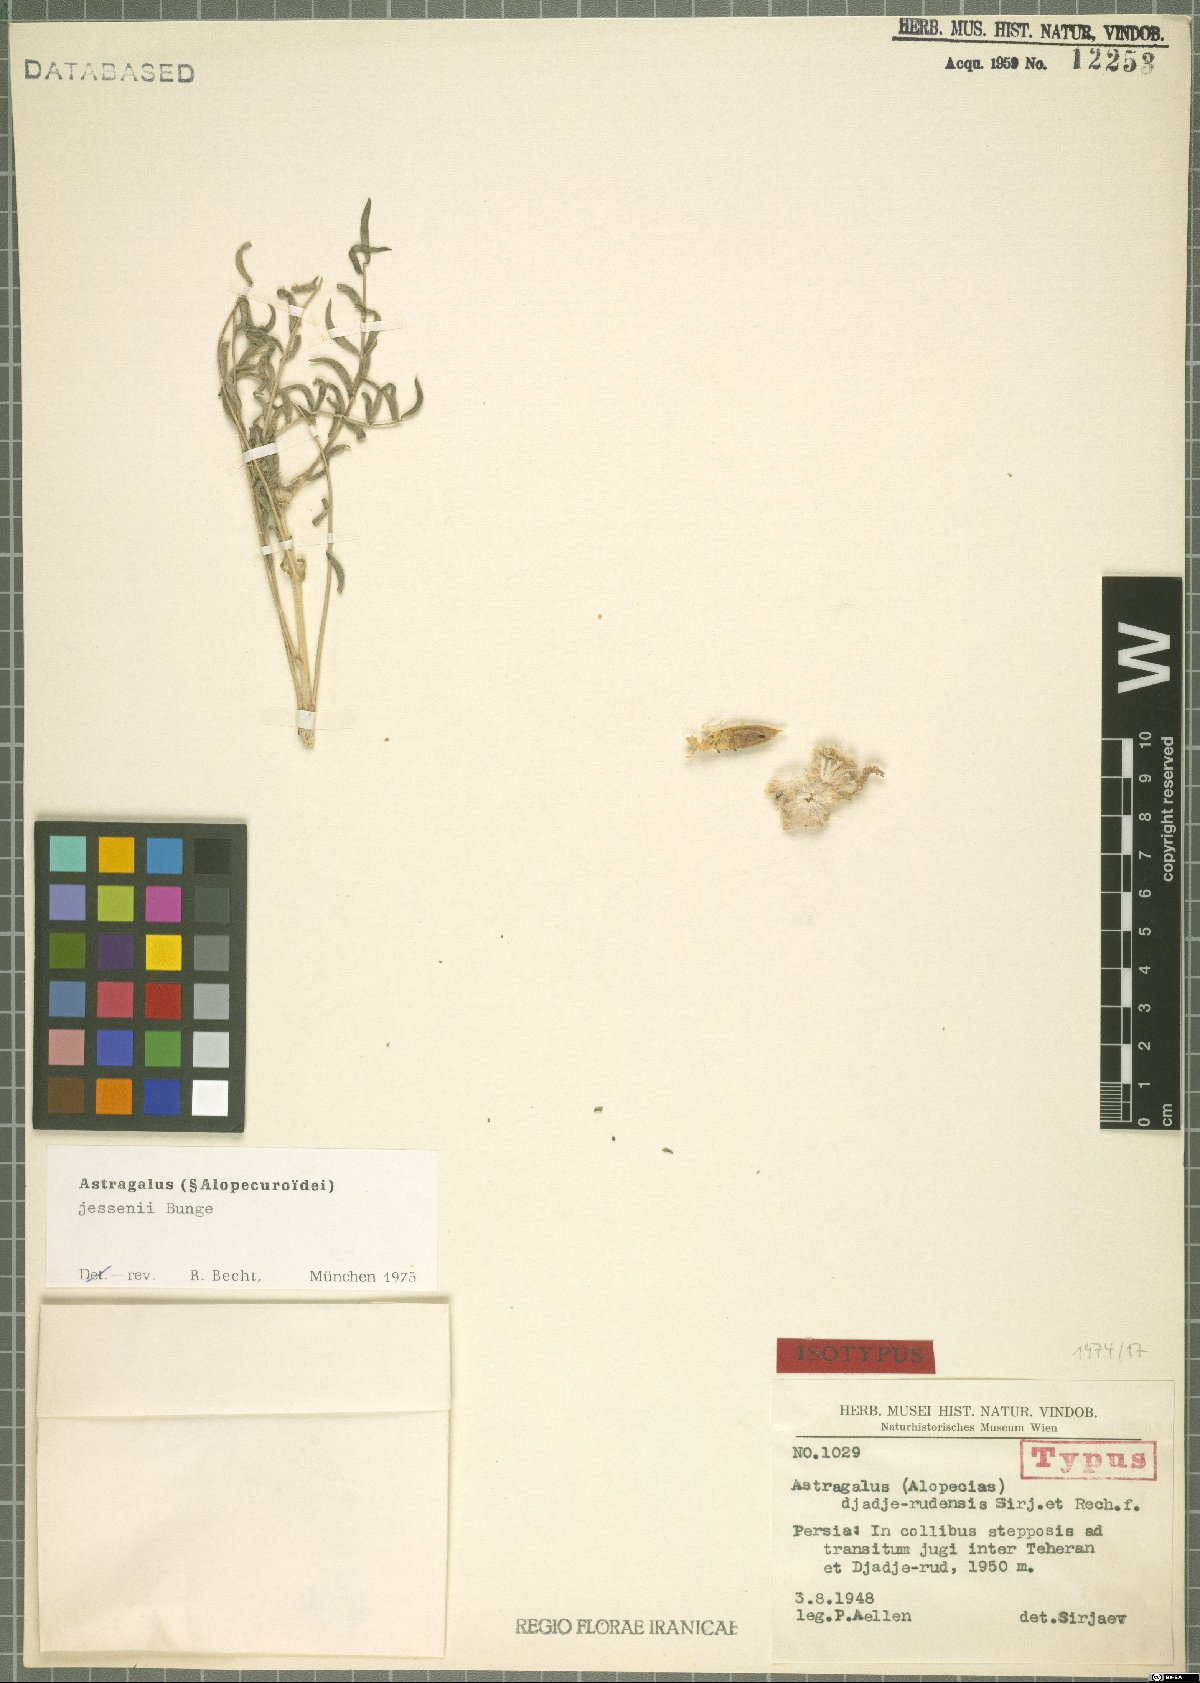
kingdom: Plantae
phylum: Tracheophyta
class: Magnoliopsida
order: Fabales
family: Fabaceae
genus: Astragalus
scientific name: Astragalus jessenii
